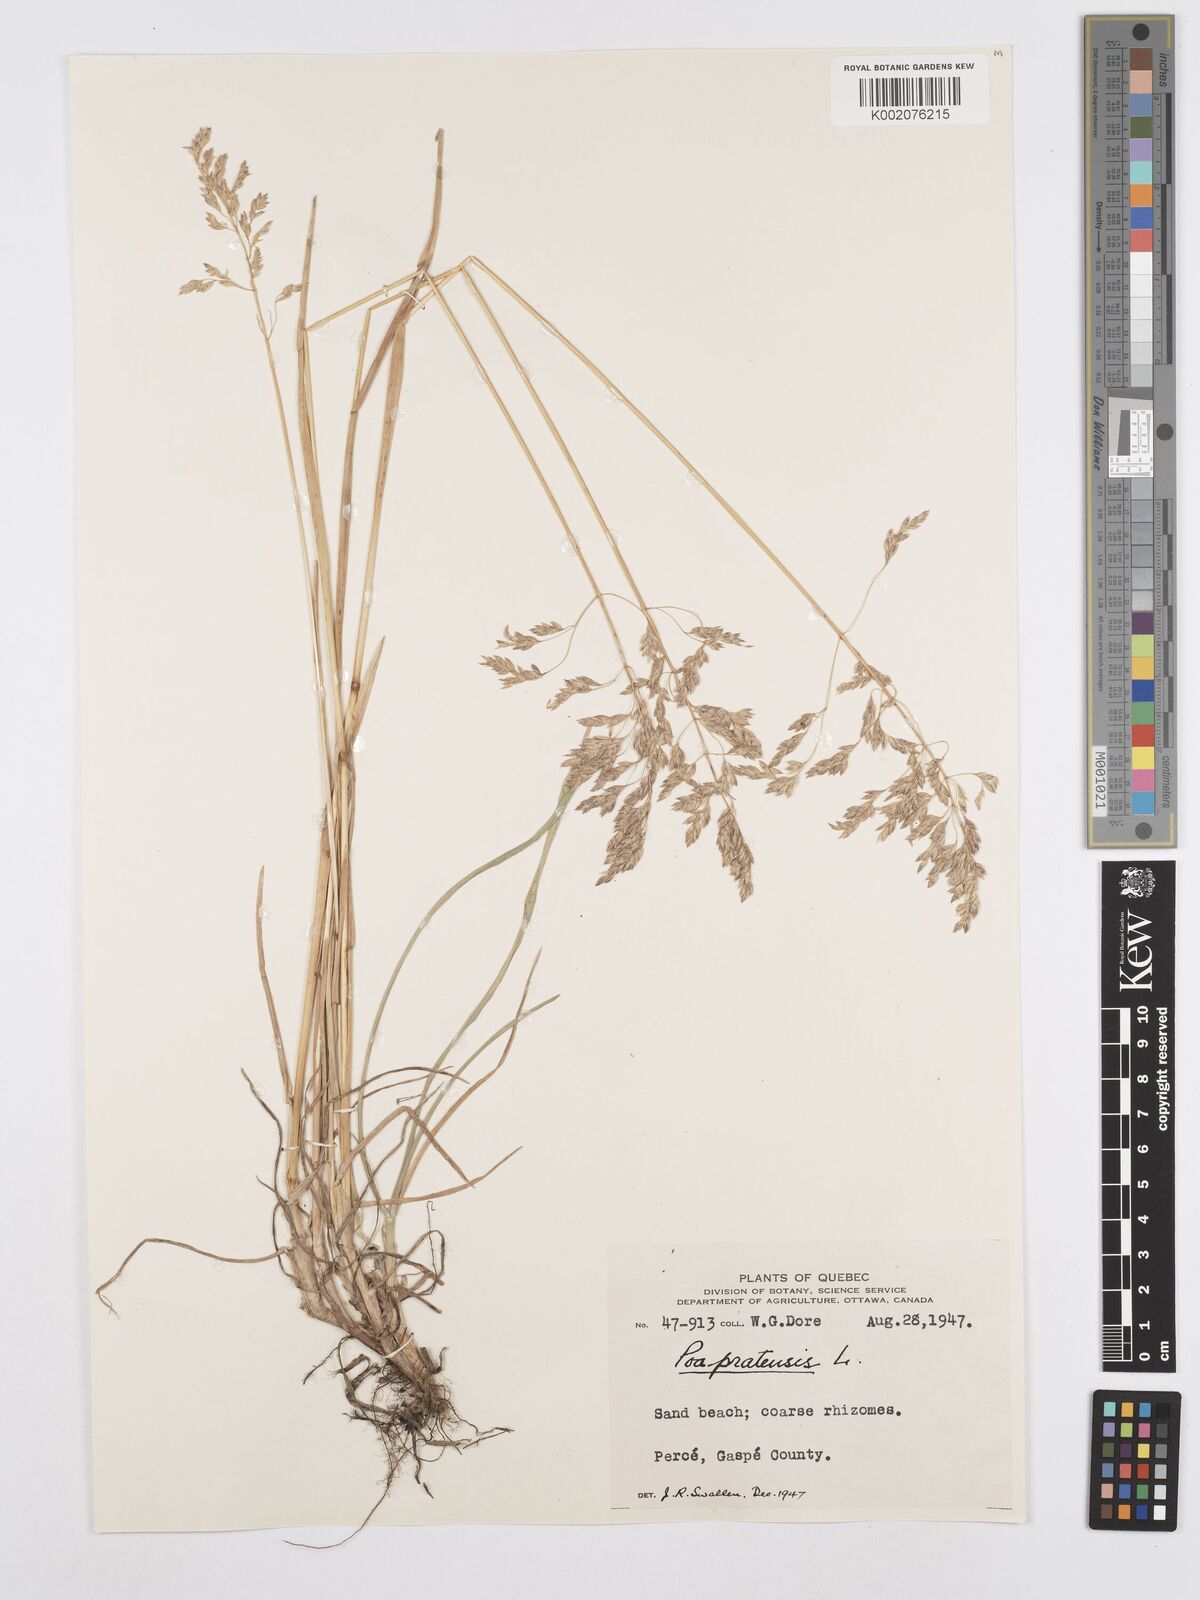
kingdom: Plantae
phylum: Tracheophyta
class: Liliopsida
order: Poales
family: Poaceae
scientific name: Poaceae
